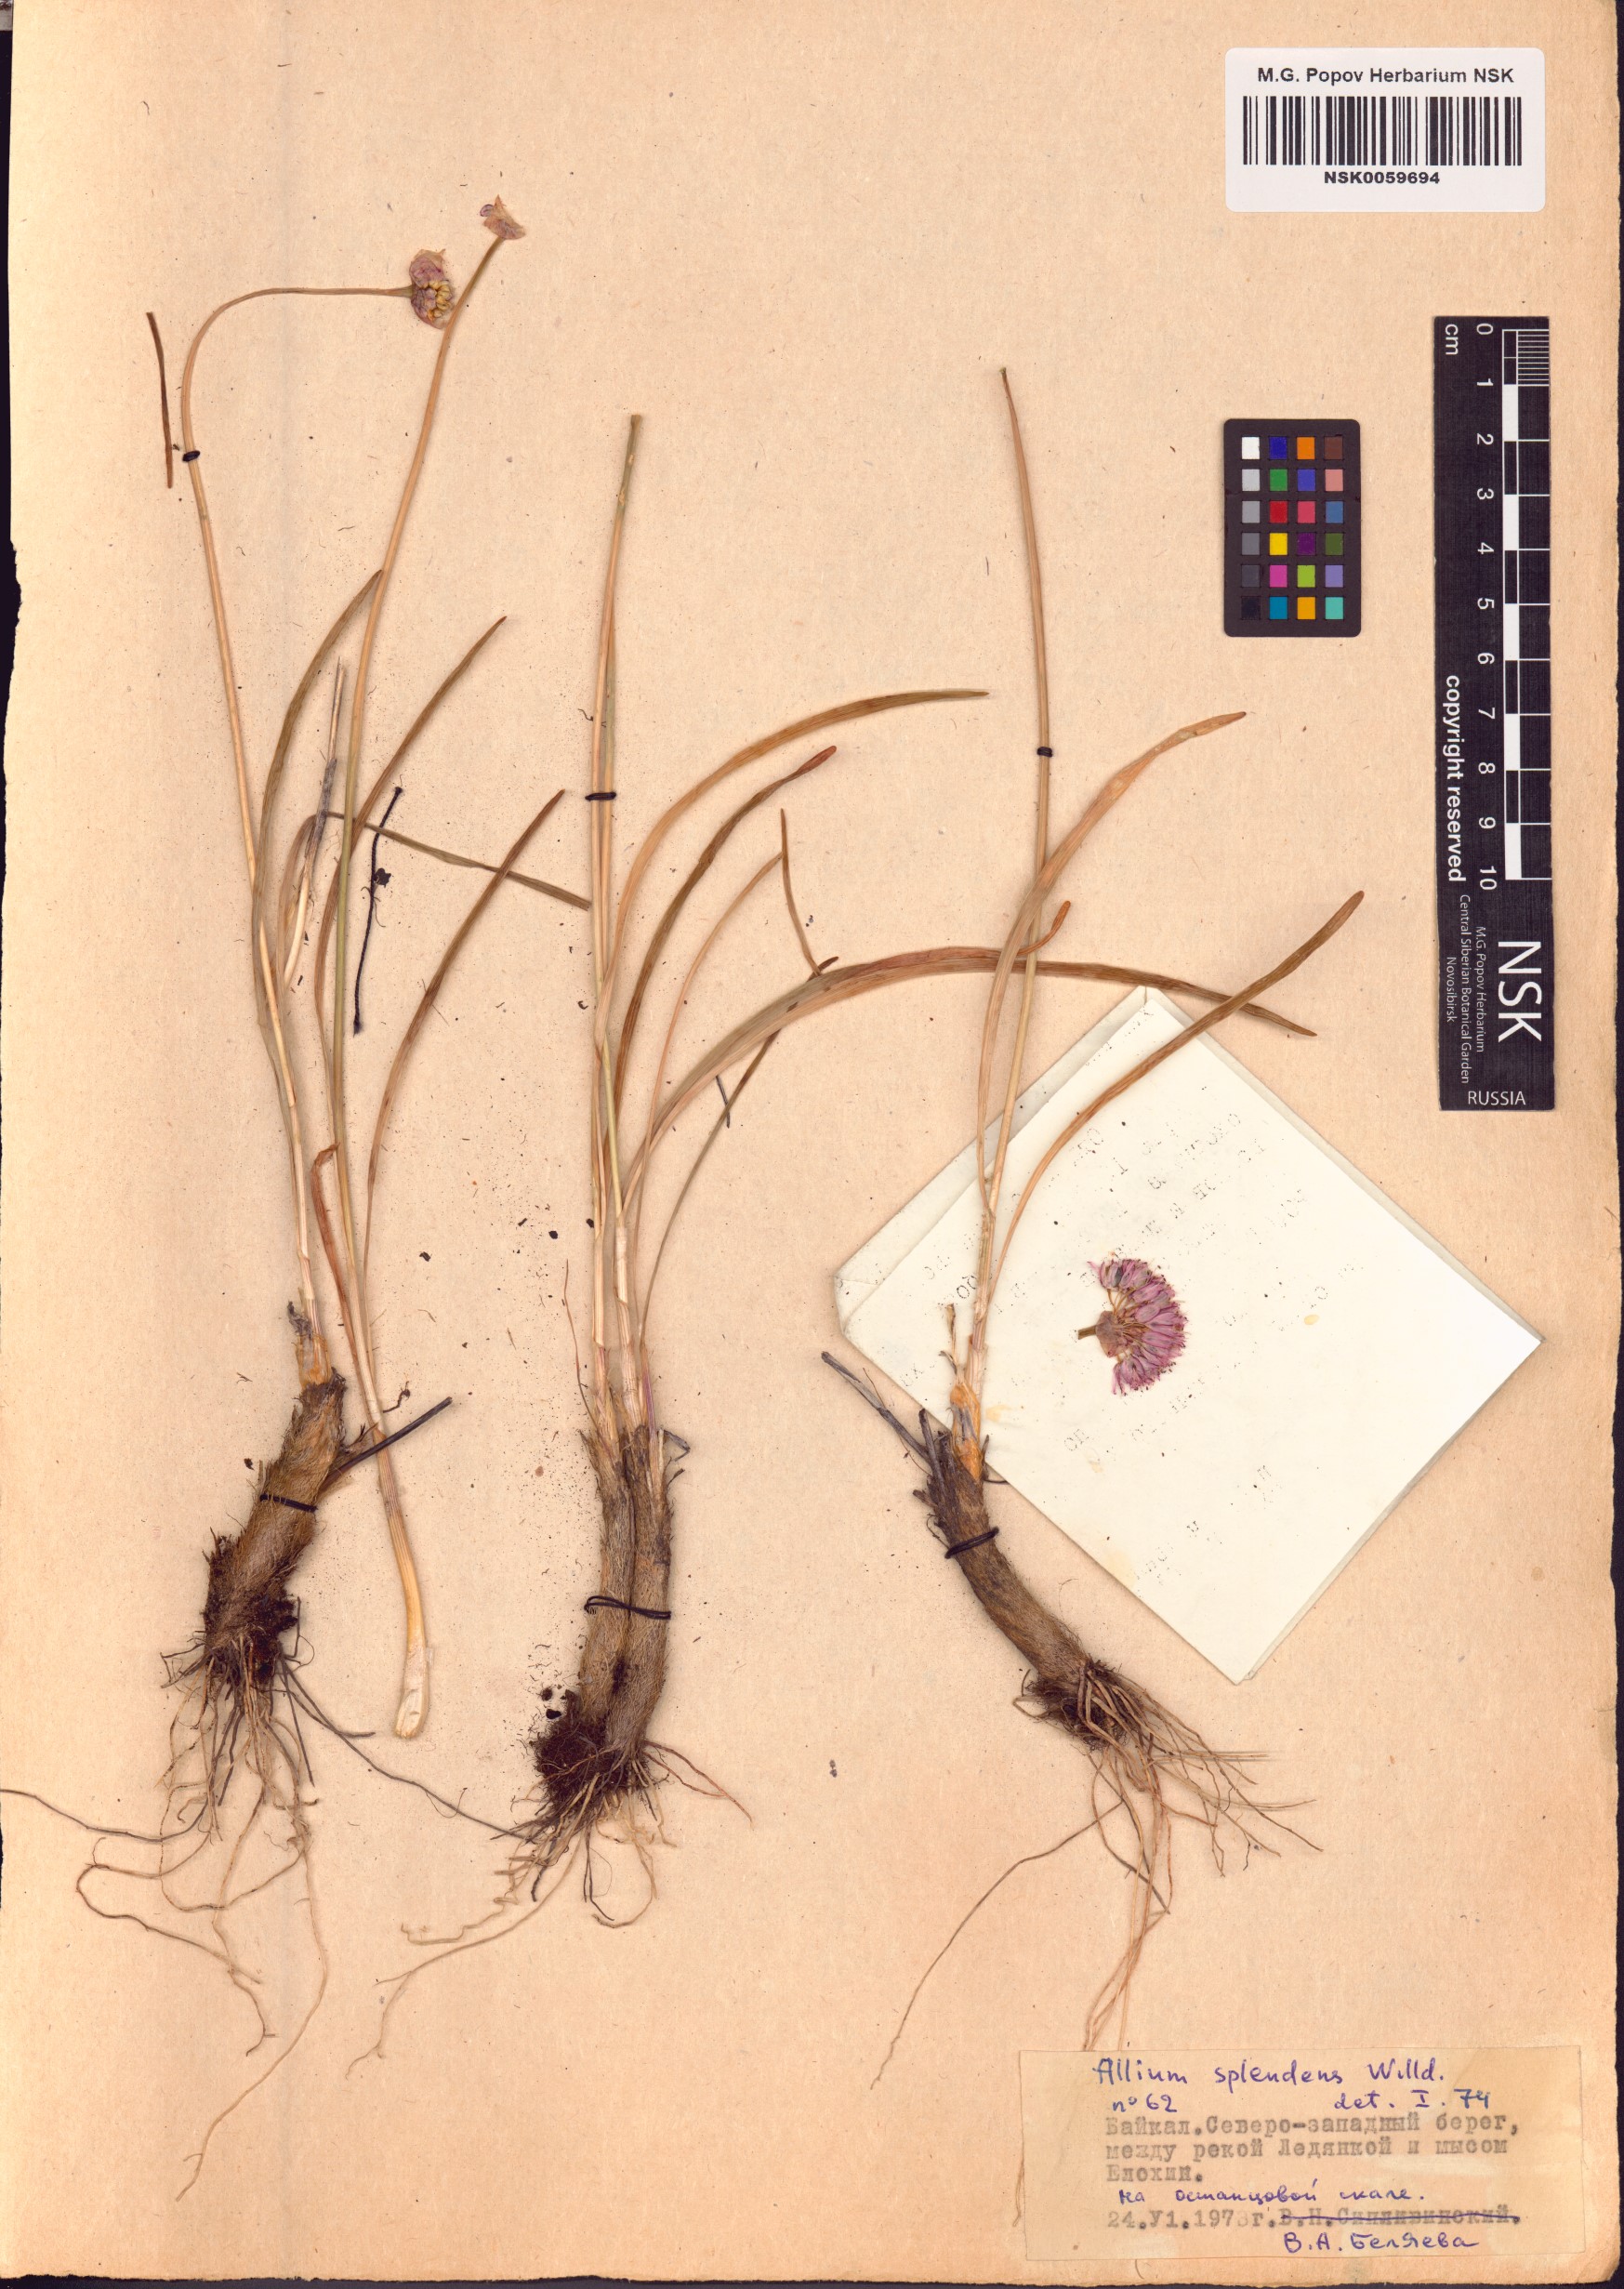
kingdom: Plantae
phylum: Tracheophyta
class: Liliopsida
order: Asparagales
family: Amaryllidaceae
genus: Allium
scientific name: Allium splendens
